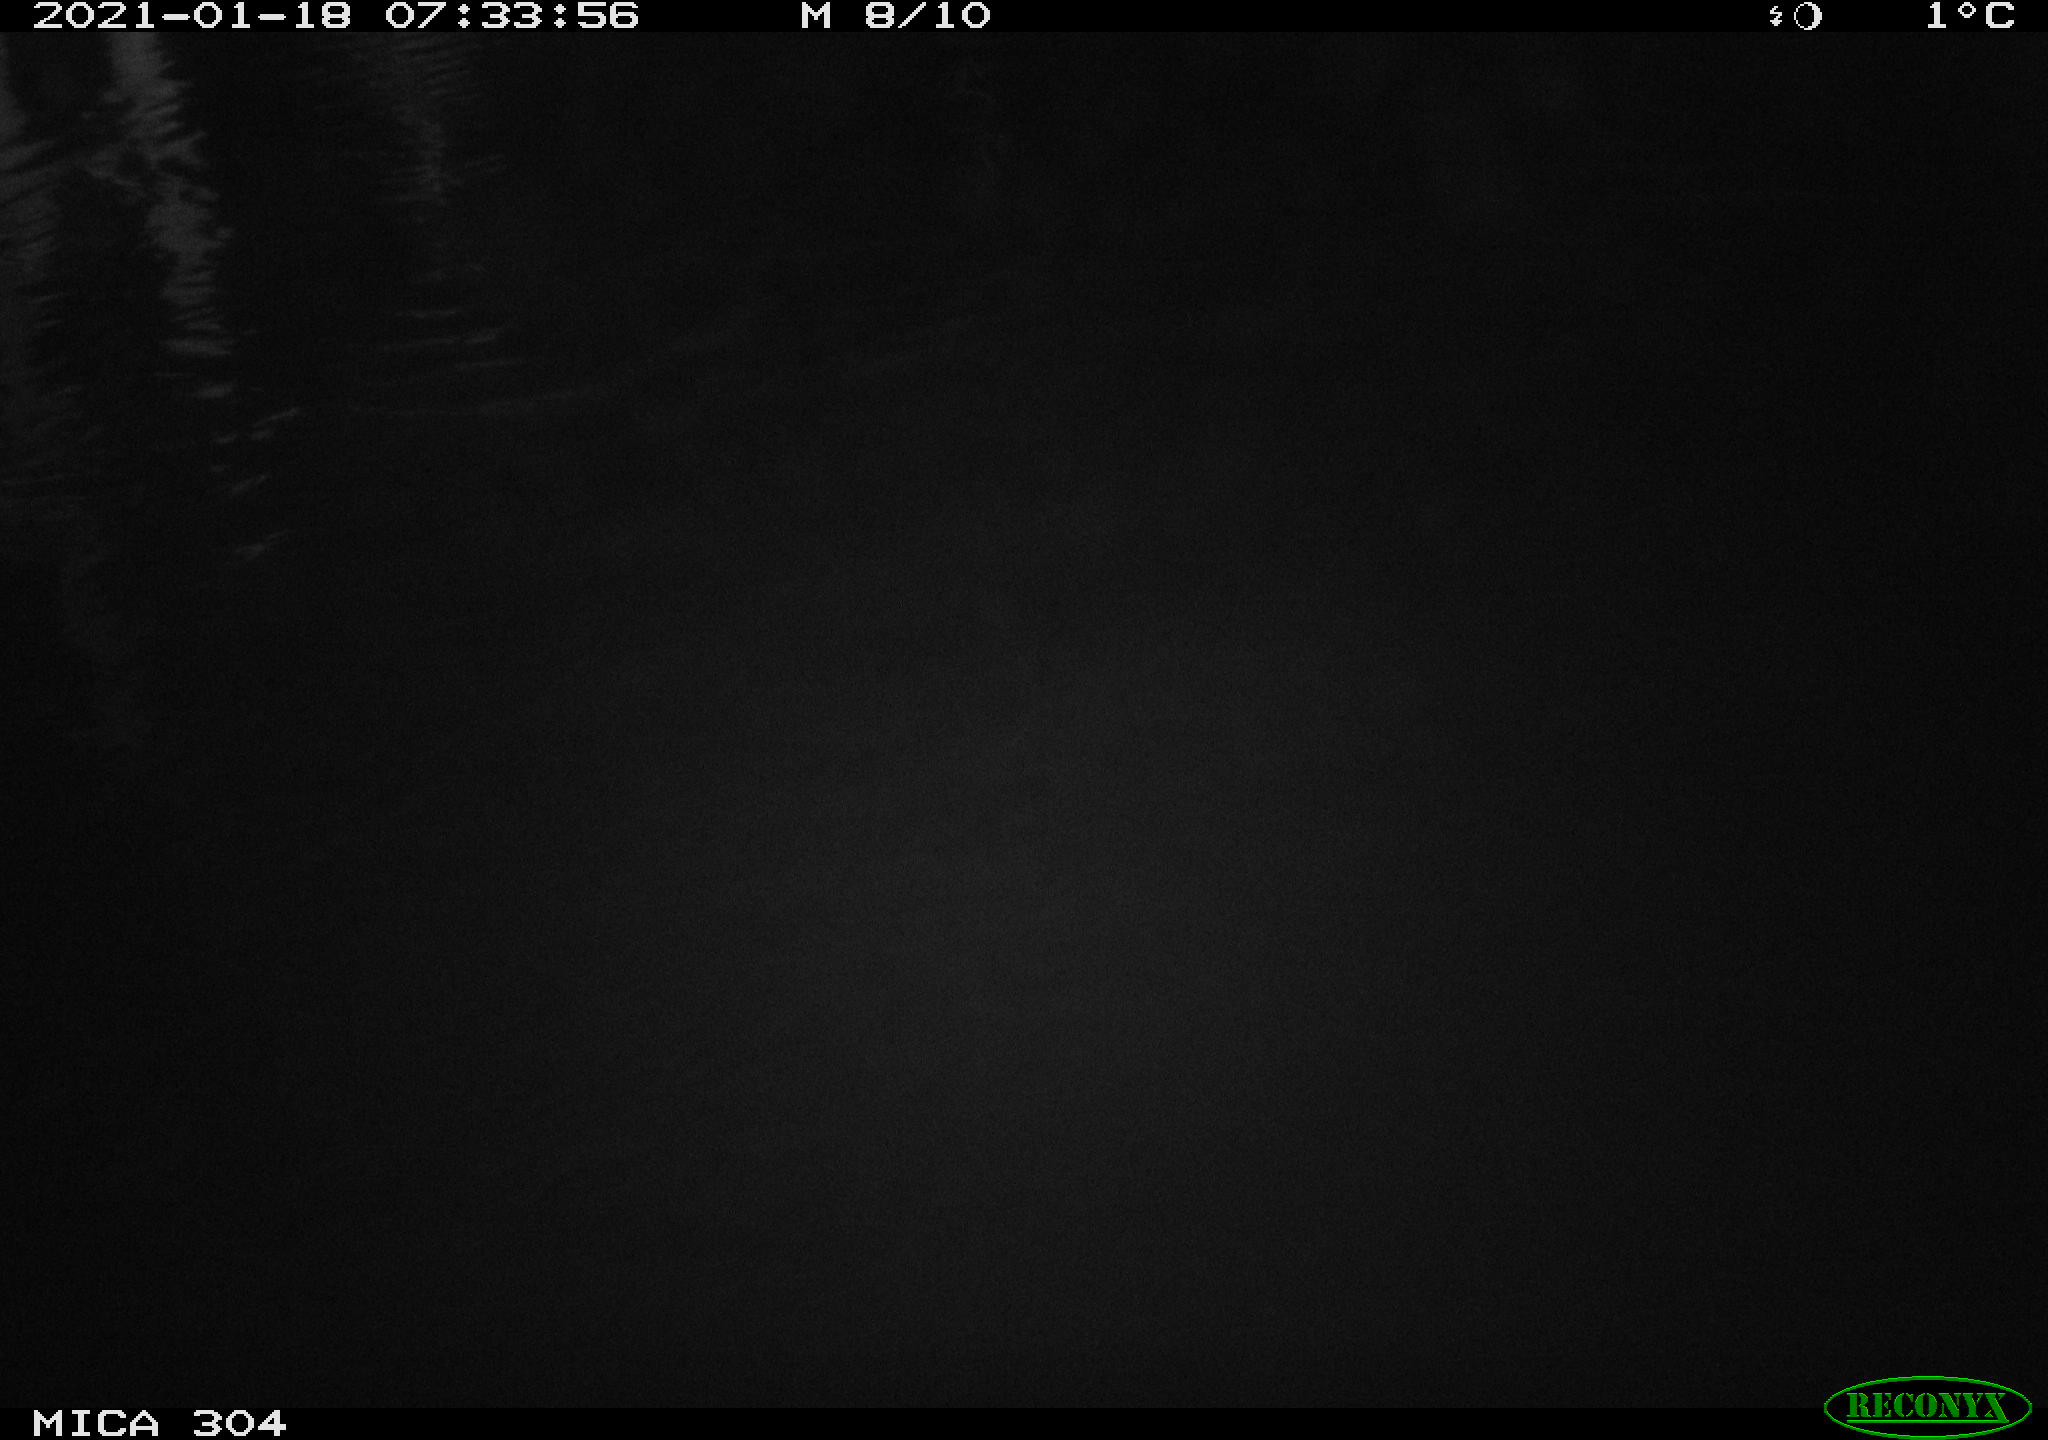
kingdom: Animalia
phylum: Chordata
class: Aves
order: Gruiformes
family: Rallidae
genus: Gallinula
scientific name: Gallinula chloropus
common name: Common moorhen
